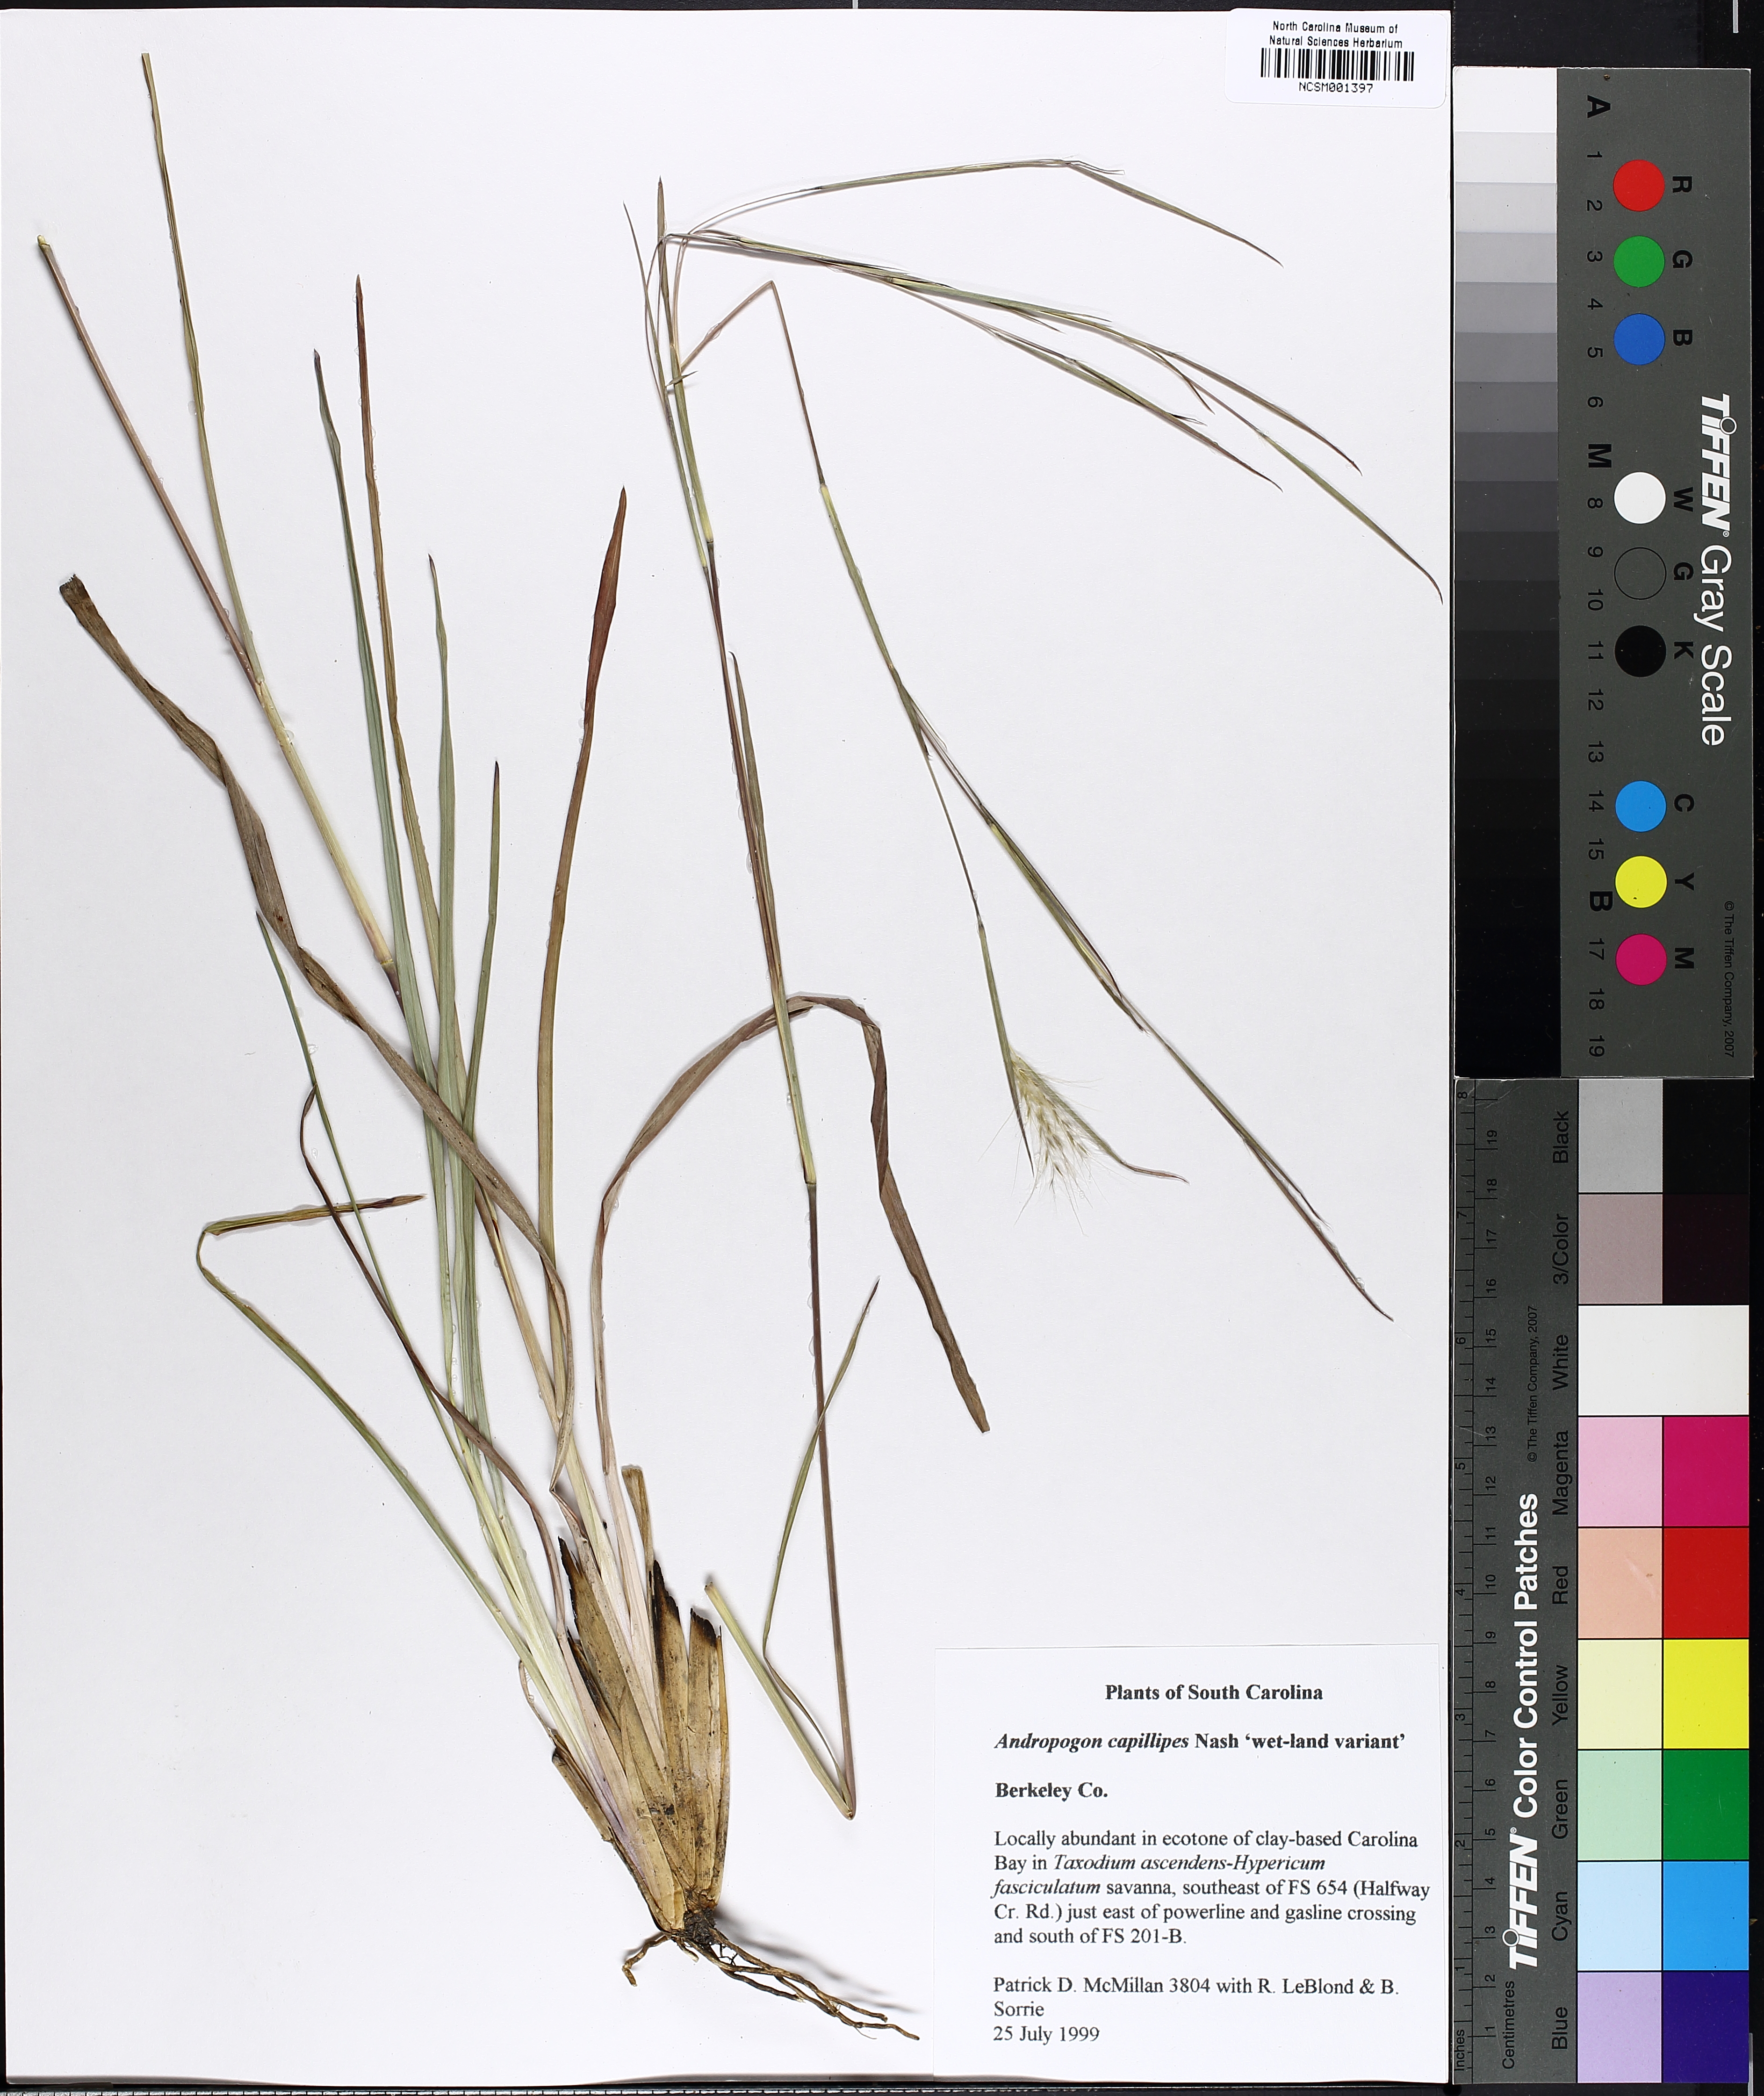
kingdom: Plantae
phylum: Tracheophyta
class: Liliopsida
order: Poales
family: Poaceae
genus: Andropogon
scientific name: Andropogon capillipes
